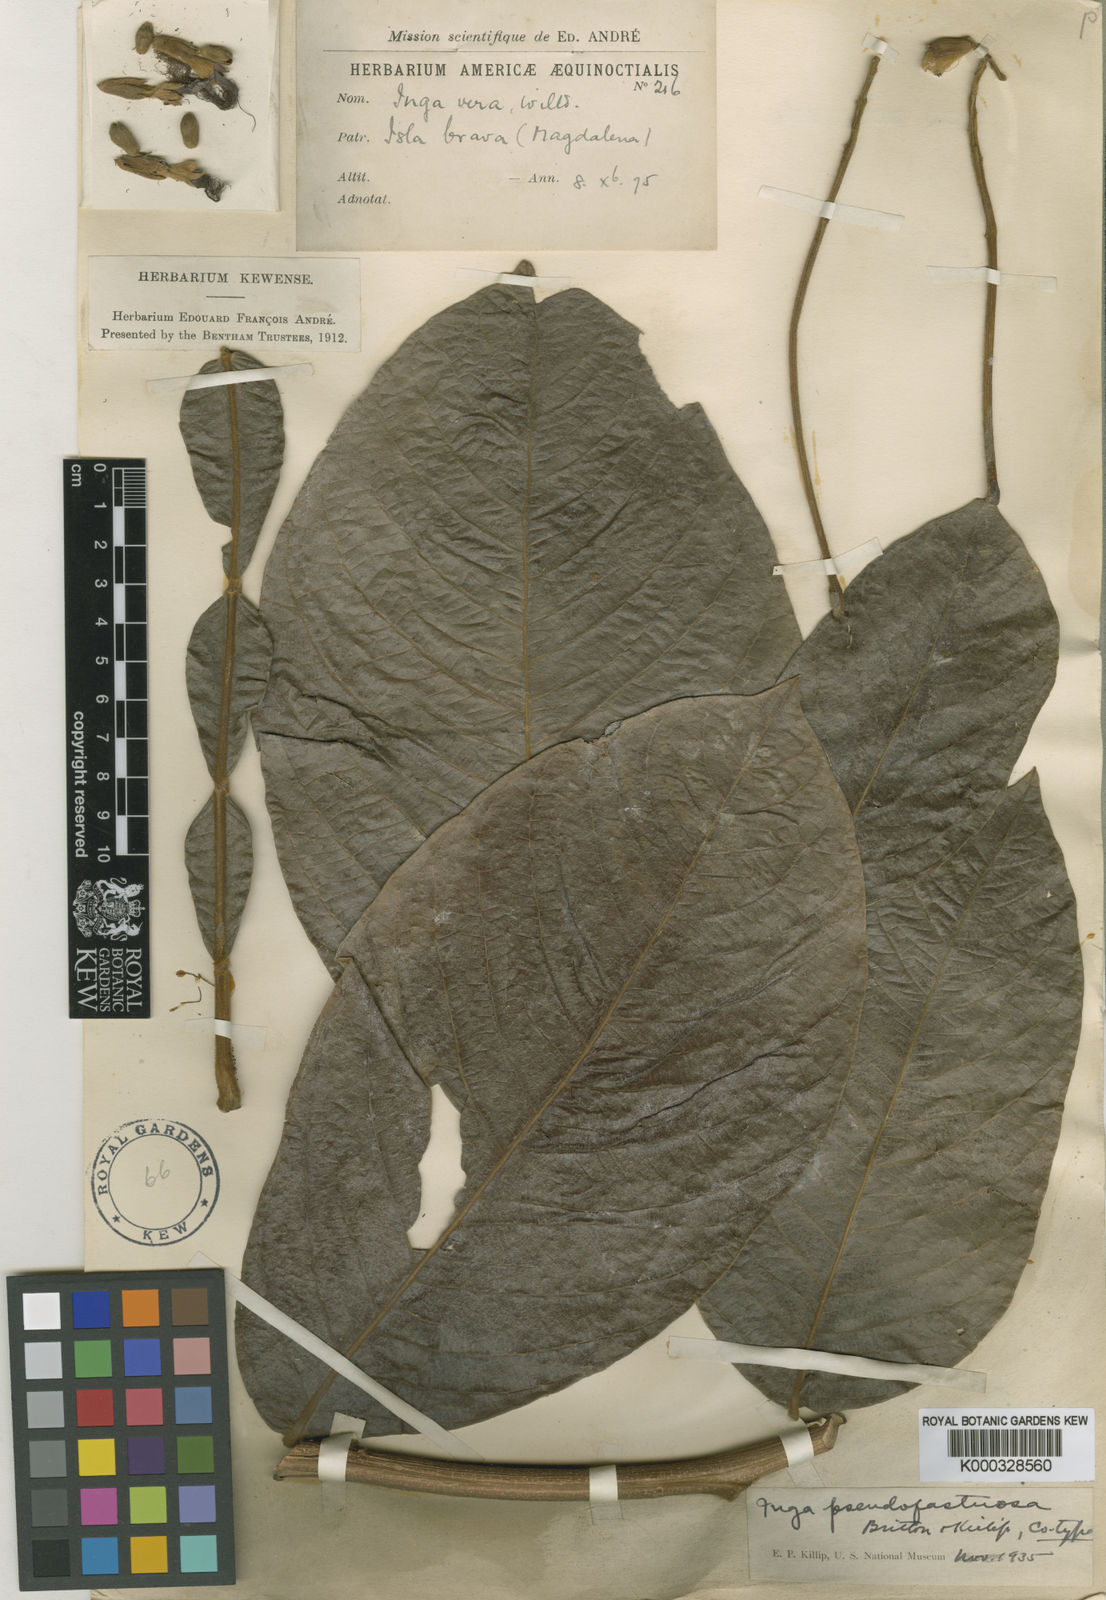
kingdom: Plantae
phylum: Tracheophyta
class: Magnoliopsida
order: Fabales
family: Fabaceae
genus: Inga
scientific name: Inga vera
